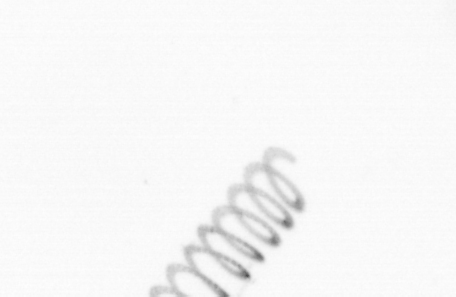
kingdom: Chromista
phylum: Ochrophyta
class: Bacillariophyceae
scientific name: Bacillariophyceae
